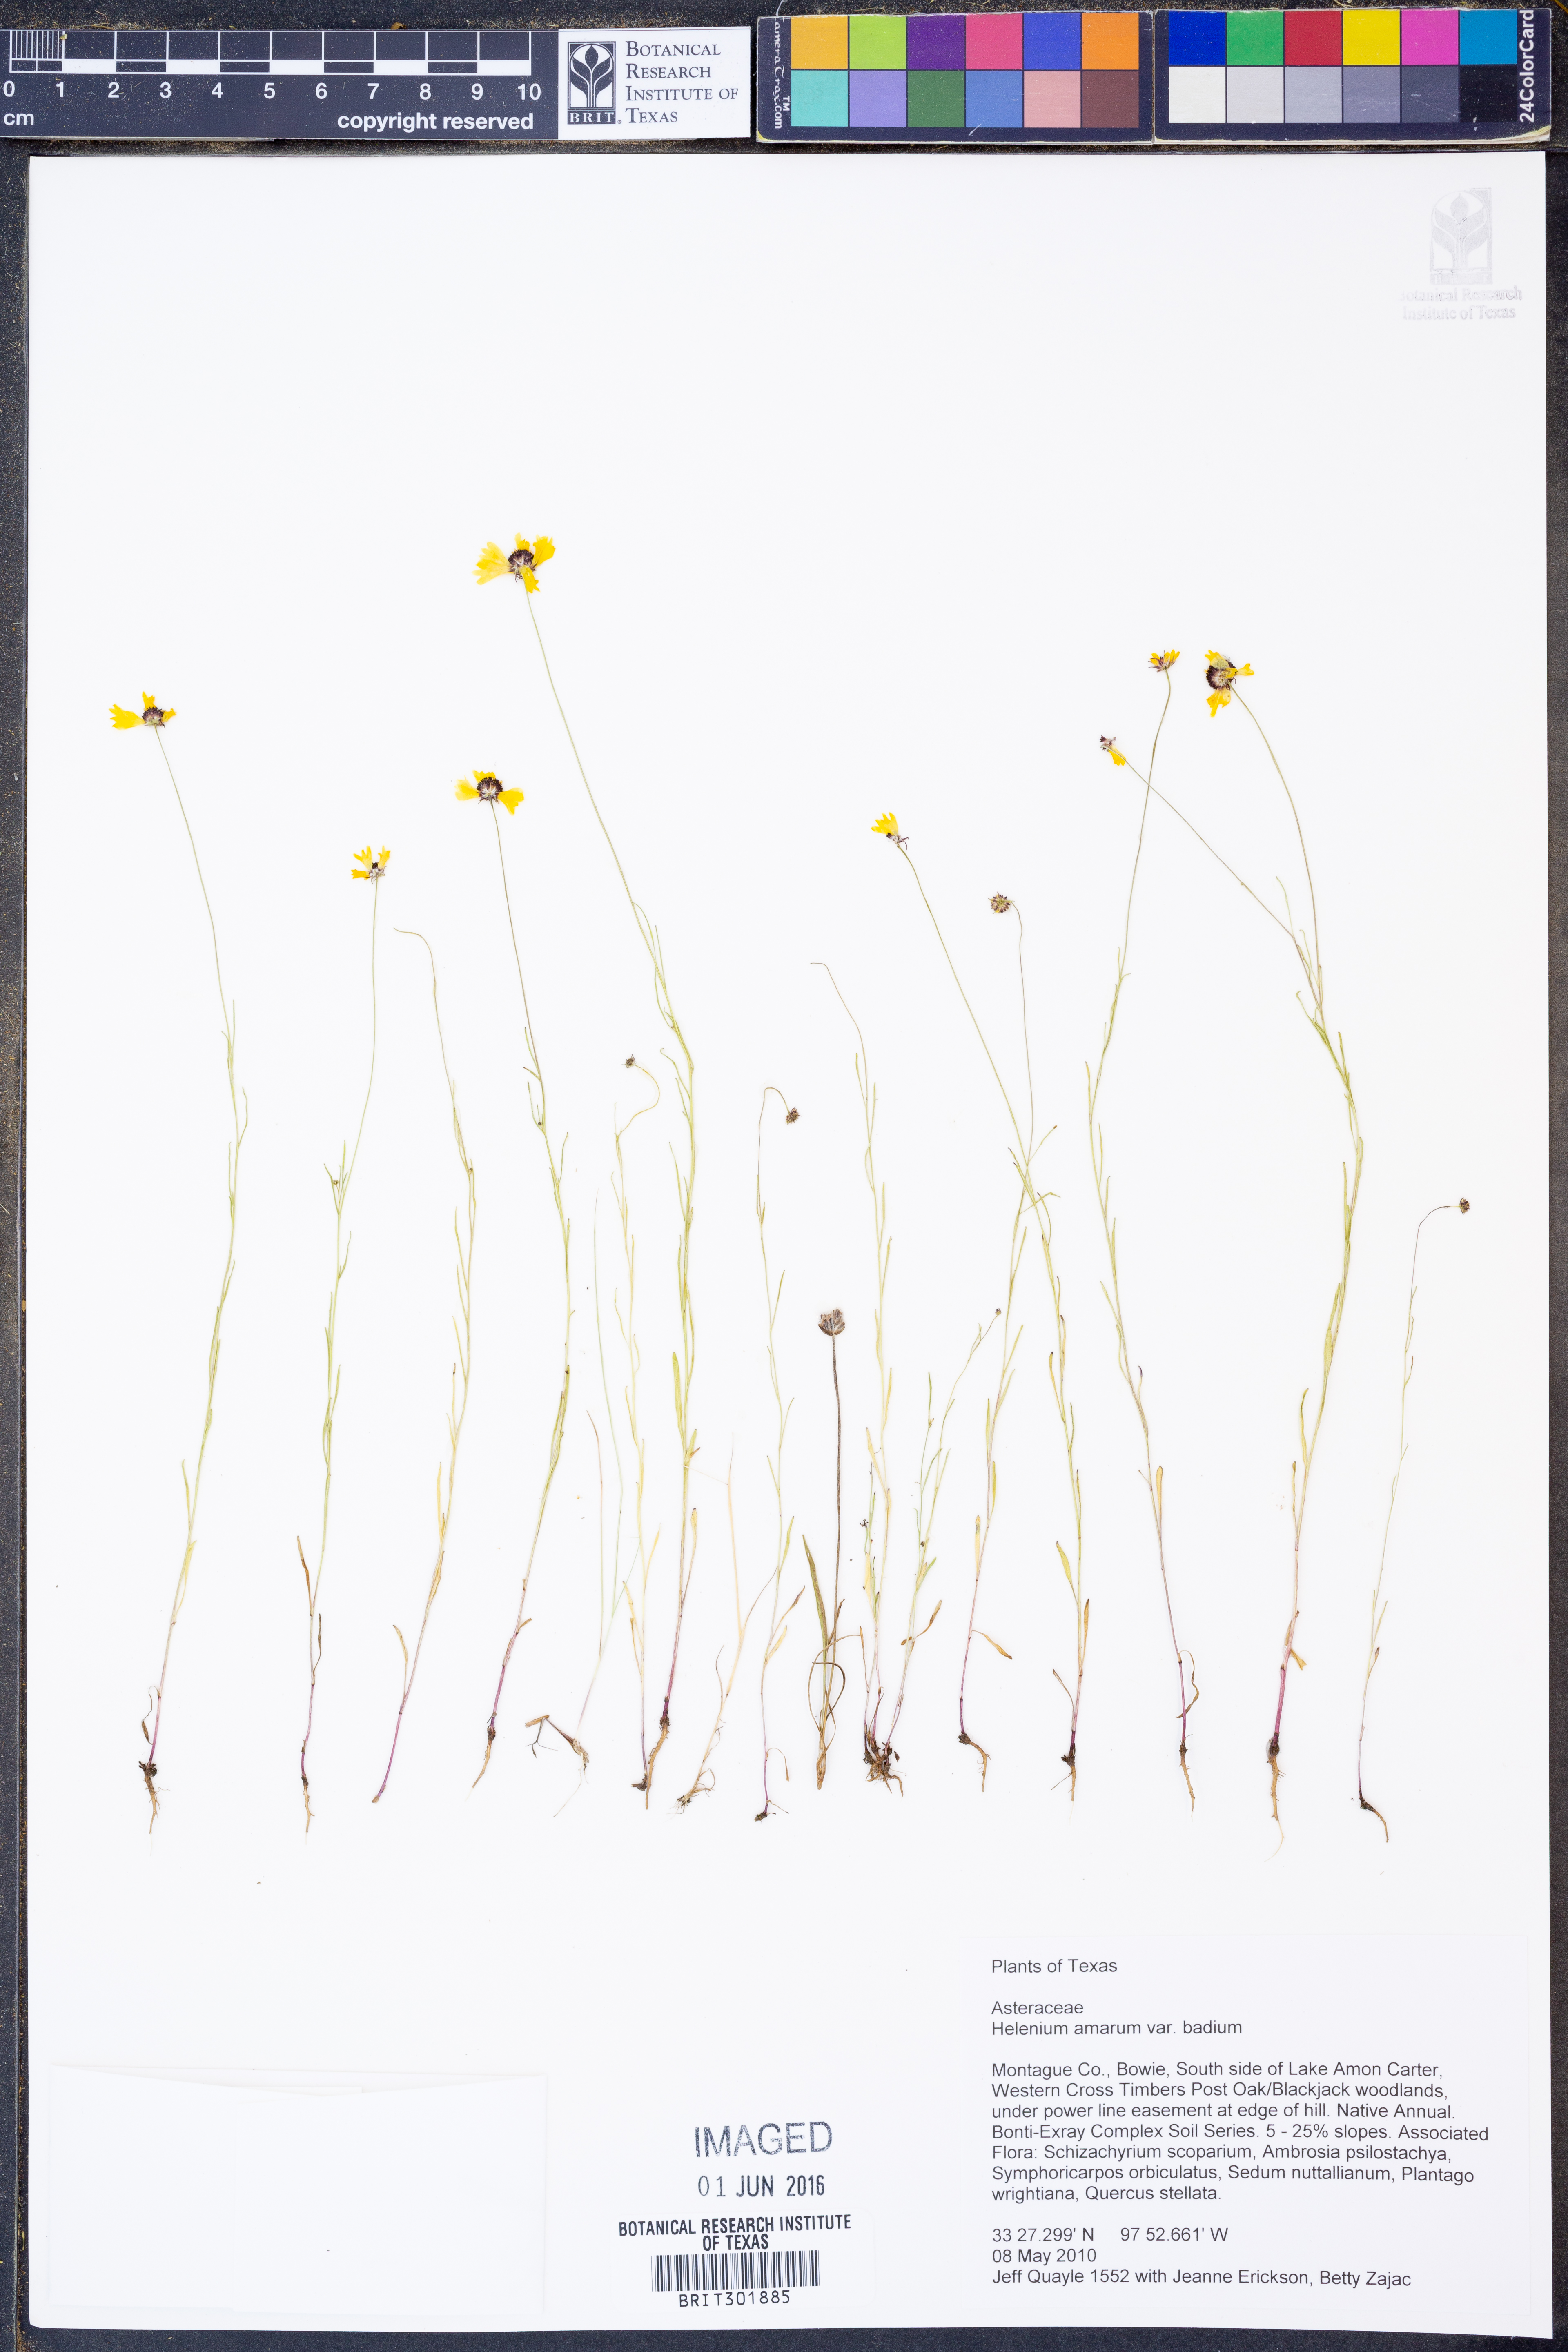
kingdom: Plantae
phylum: Tracheophyta
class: Magnoliopsida
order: Asterales
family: Asteraceae
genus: Helenium
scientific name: Helenium amarum
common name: Bitter sneezeweed
